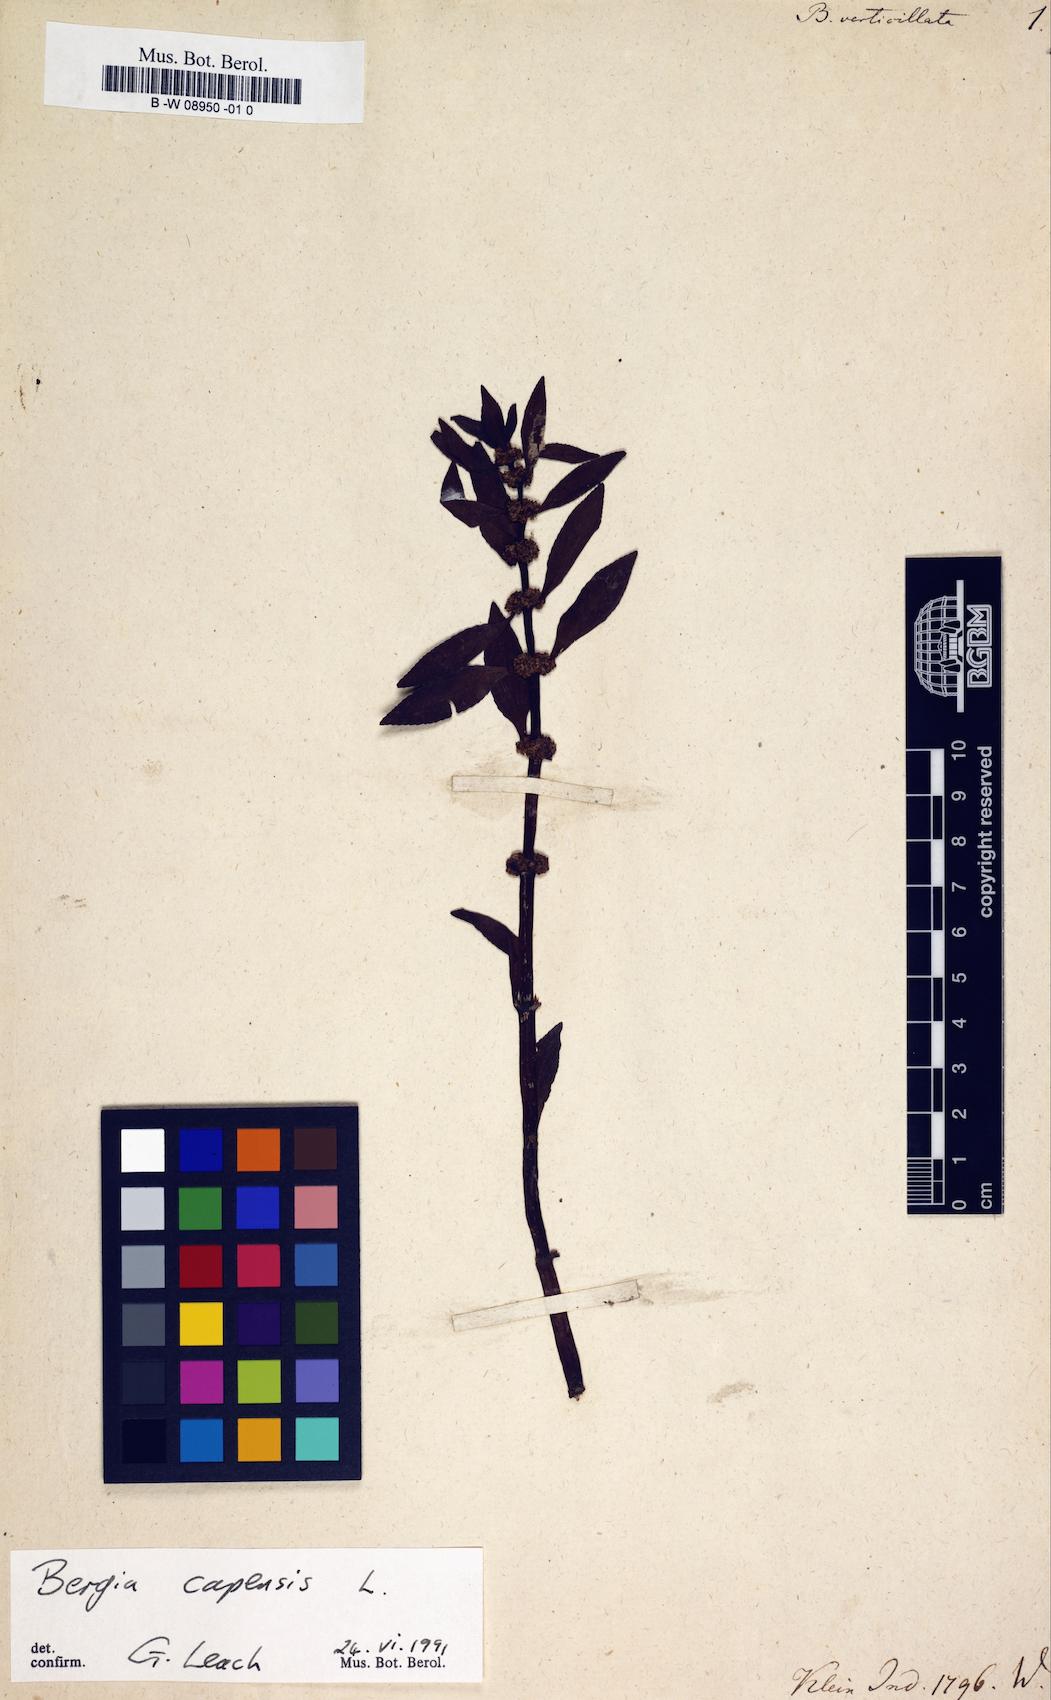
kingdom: Plantae
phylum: Tracheophyta
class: Magnoliopsida
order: Malpighiales
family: Elatinaceae
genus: Bergia
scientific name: Bergia capensis
